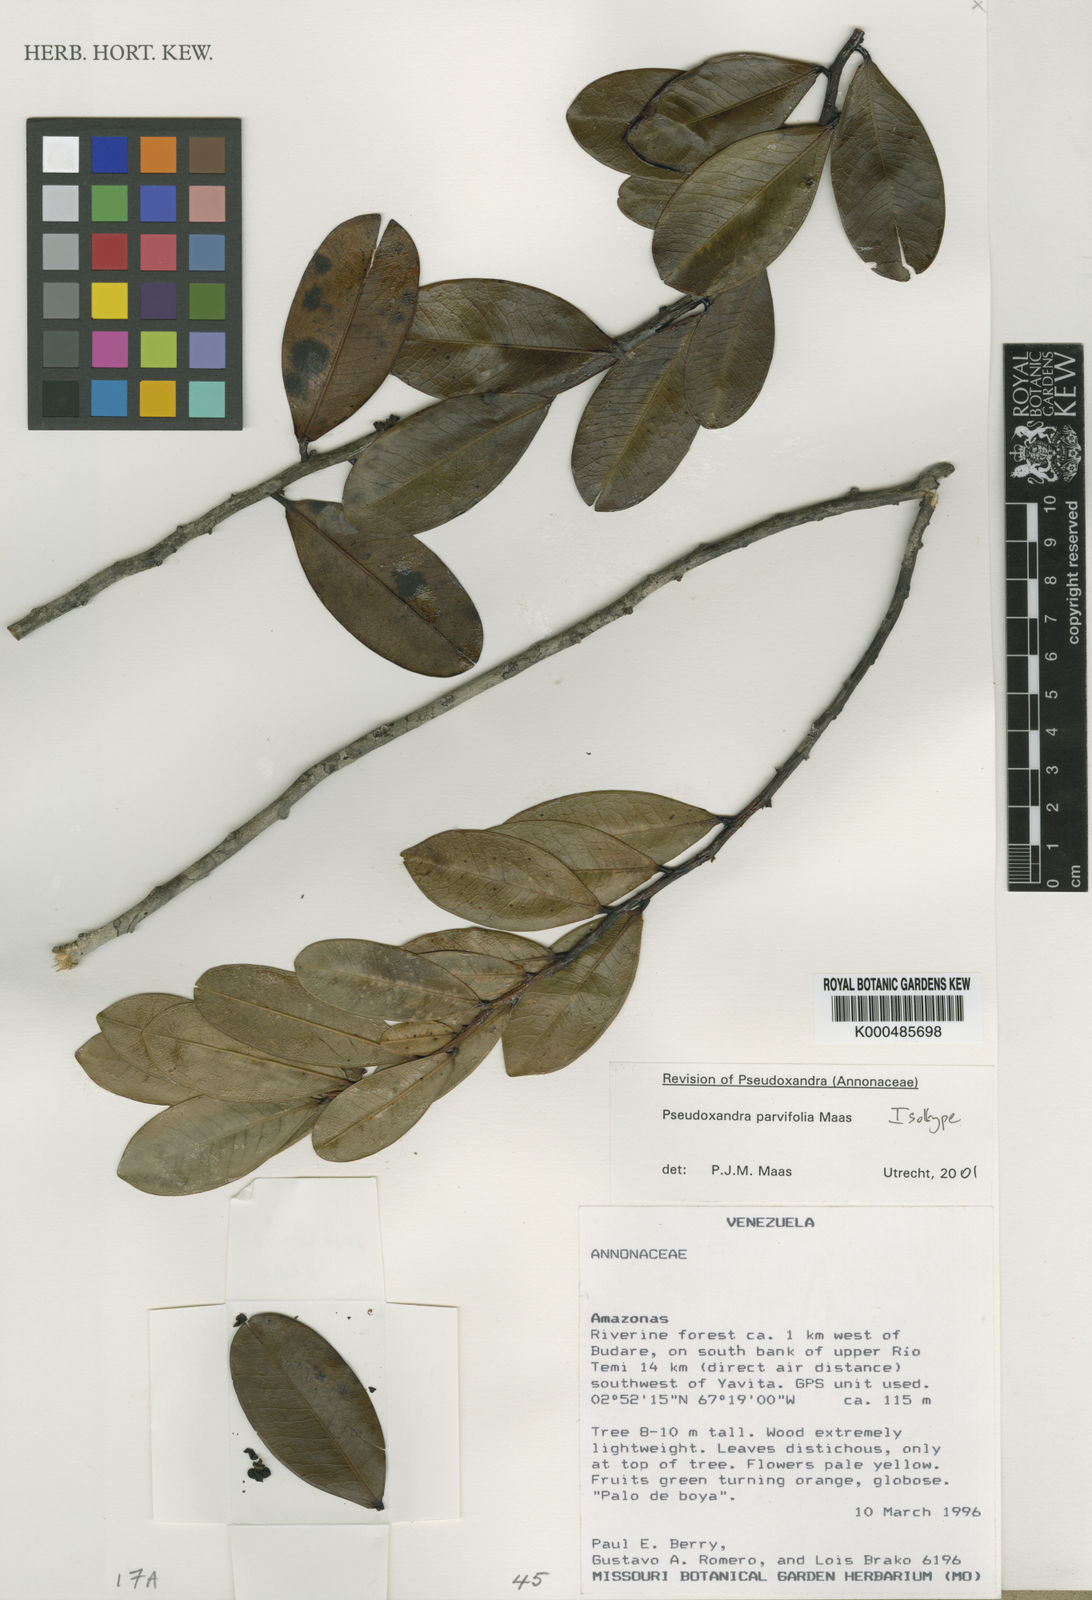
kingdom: Plantae
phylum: Tracheophyta
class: Magnoliopsida
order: Magnoliales
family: Annonaceae
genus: Pseudoxandra
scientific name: Pseudoxandra parvifolia
